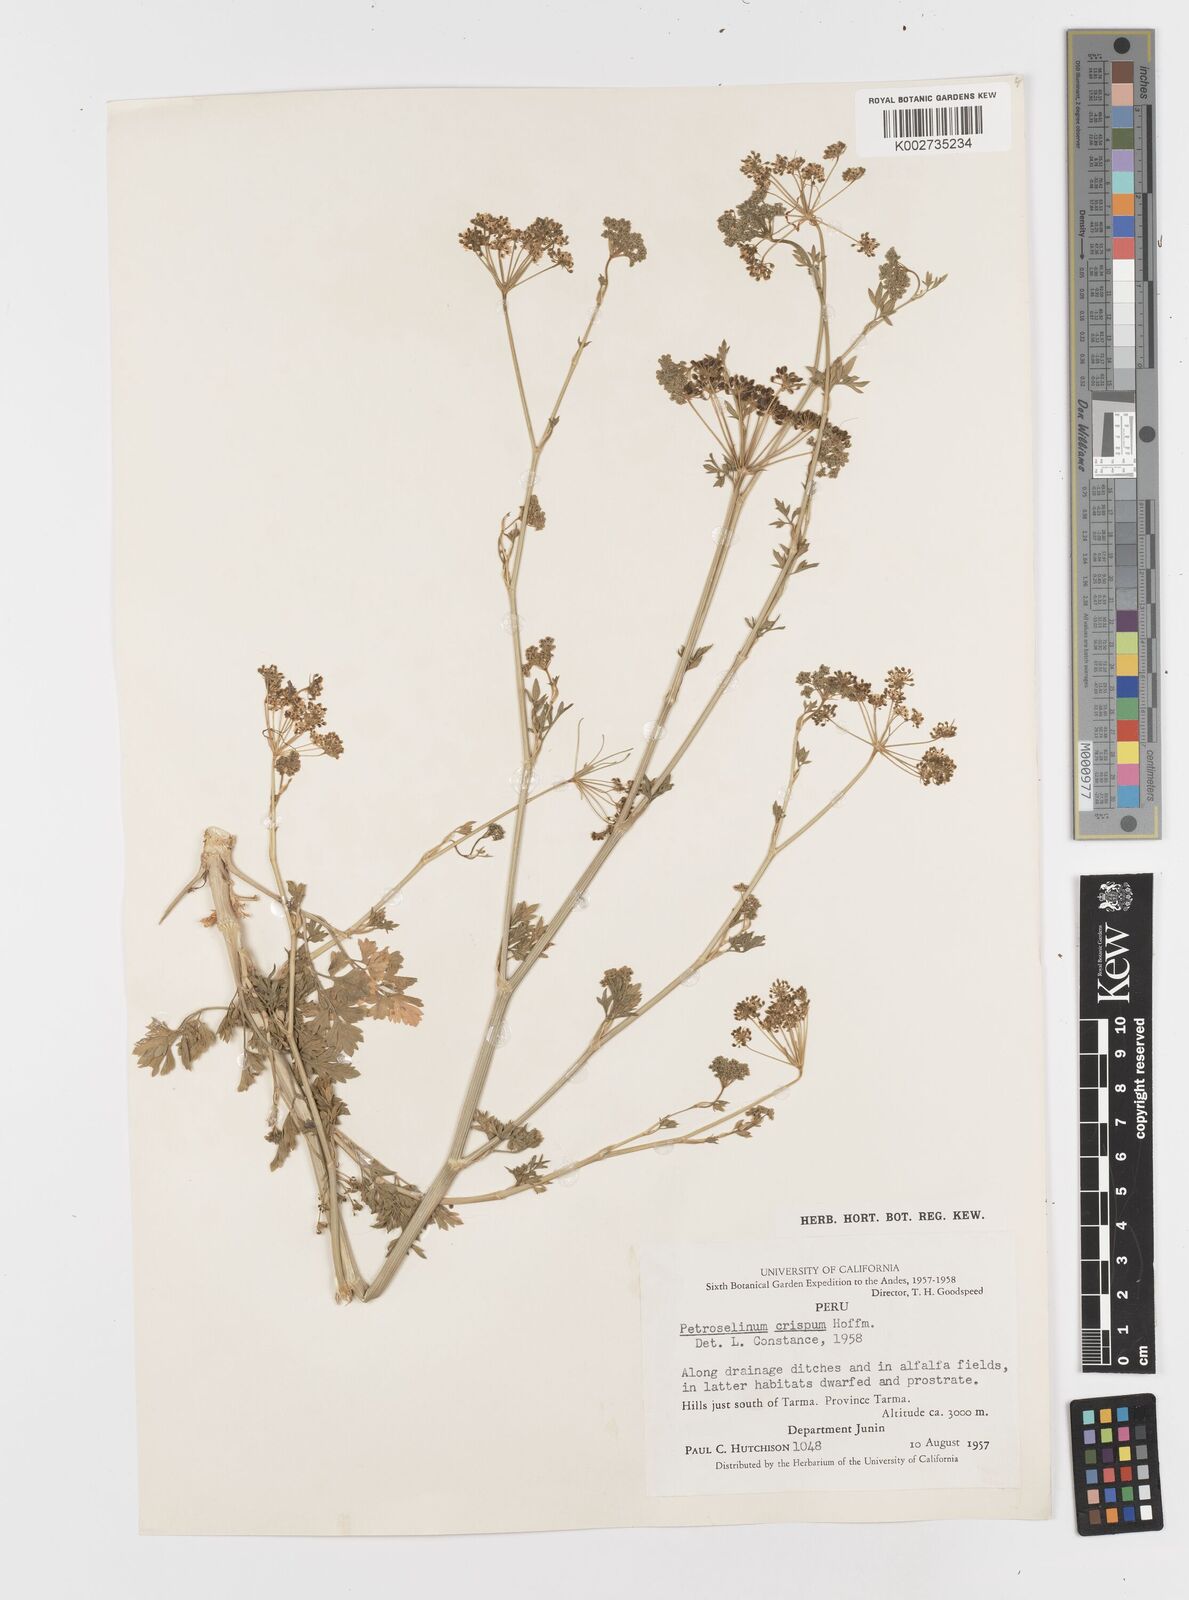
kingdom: Plantae
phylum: Tracheophyta
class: Magnoliopsida
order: Apiales
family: Apiaceae
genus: Petroselinum
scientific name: Petroselinum crispum
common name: Parsley
